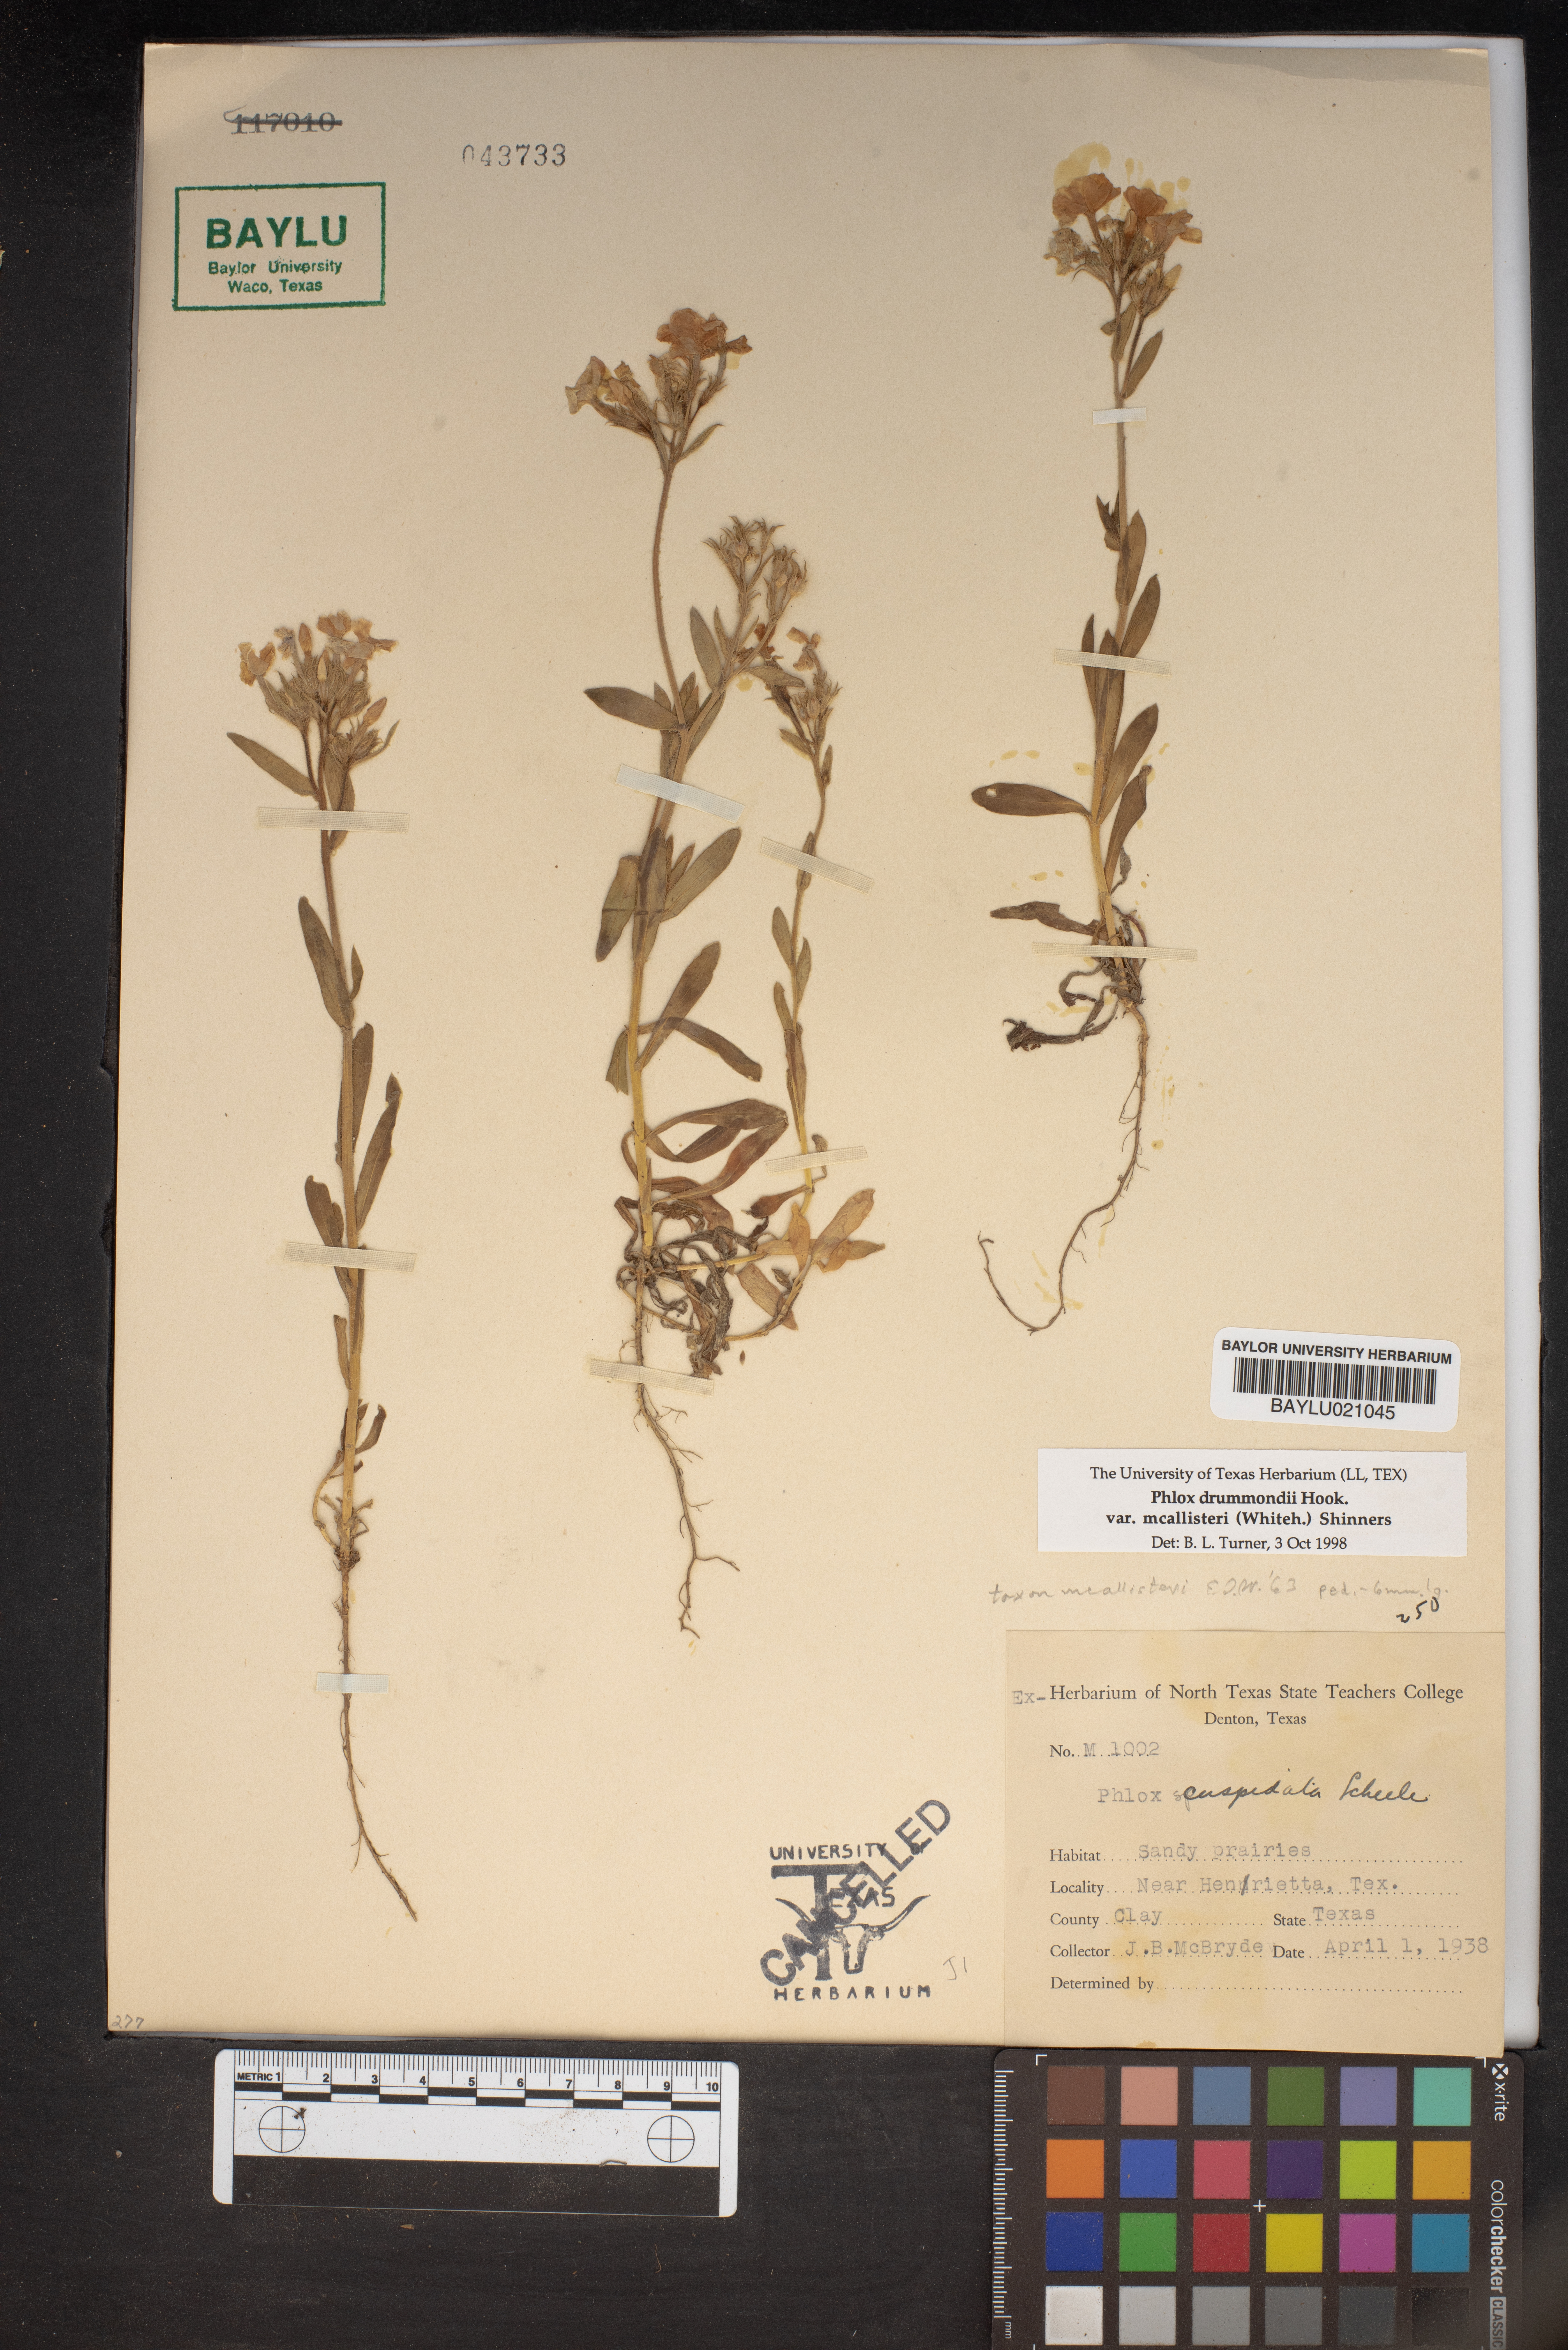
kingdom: Plantae
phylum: Tracheophyta
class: Magnoliopsida
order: Ericales
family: Polemoniaceae
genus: Phlox
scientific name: Phlox cuspidata
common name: Pointed phlox
